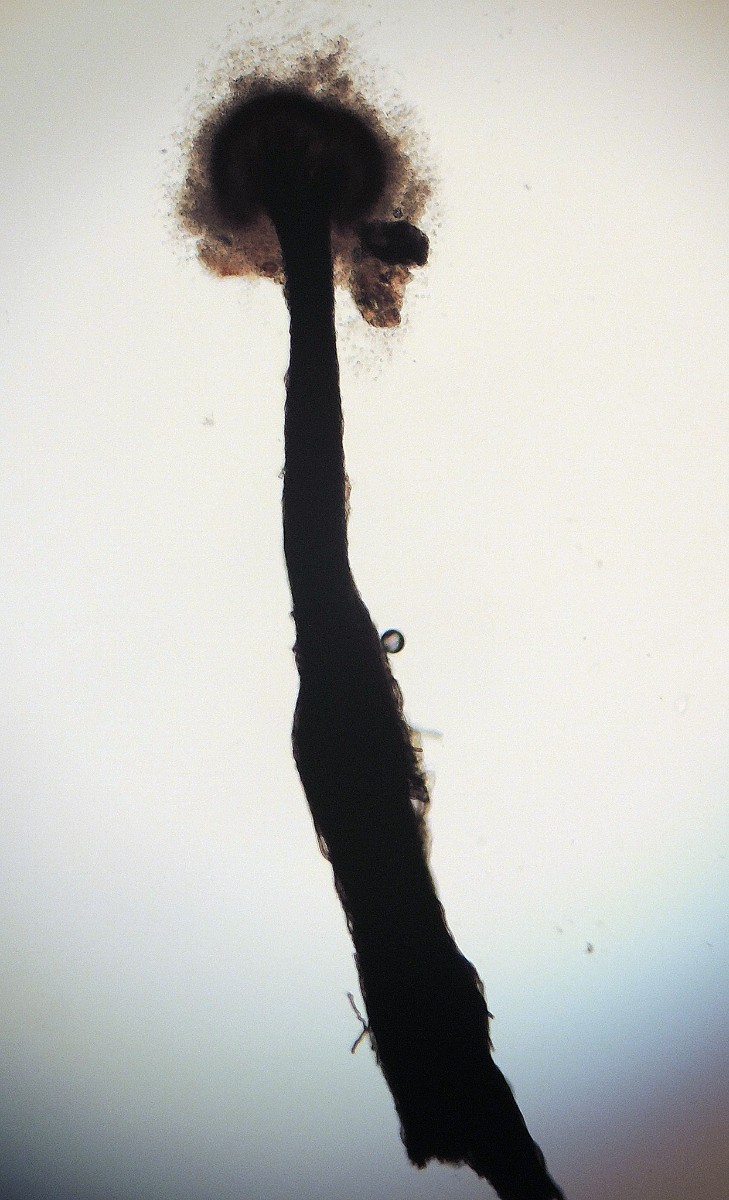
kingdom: Fungi
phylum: Ascomycota
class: Eurotiomycetes
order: Chaetothyriales
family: Herpotrichiellaceae
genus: Exophiala
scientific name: Exophiala calicioides
